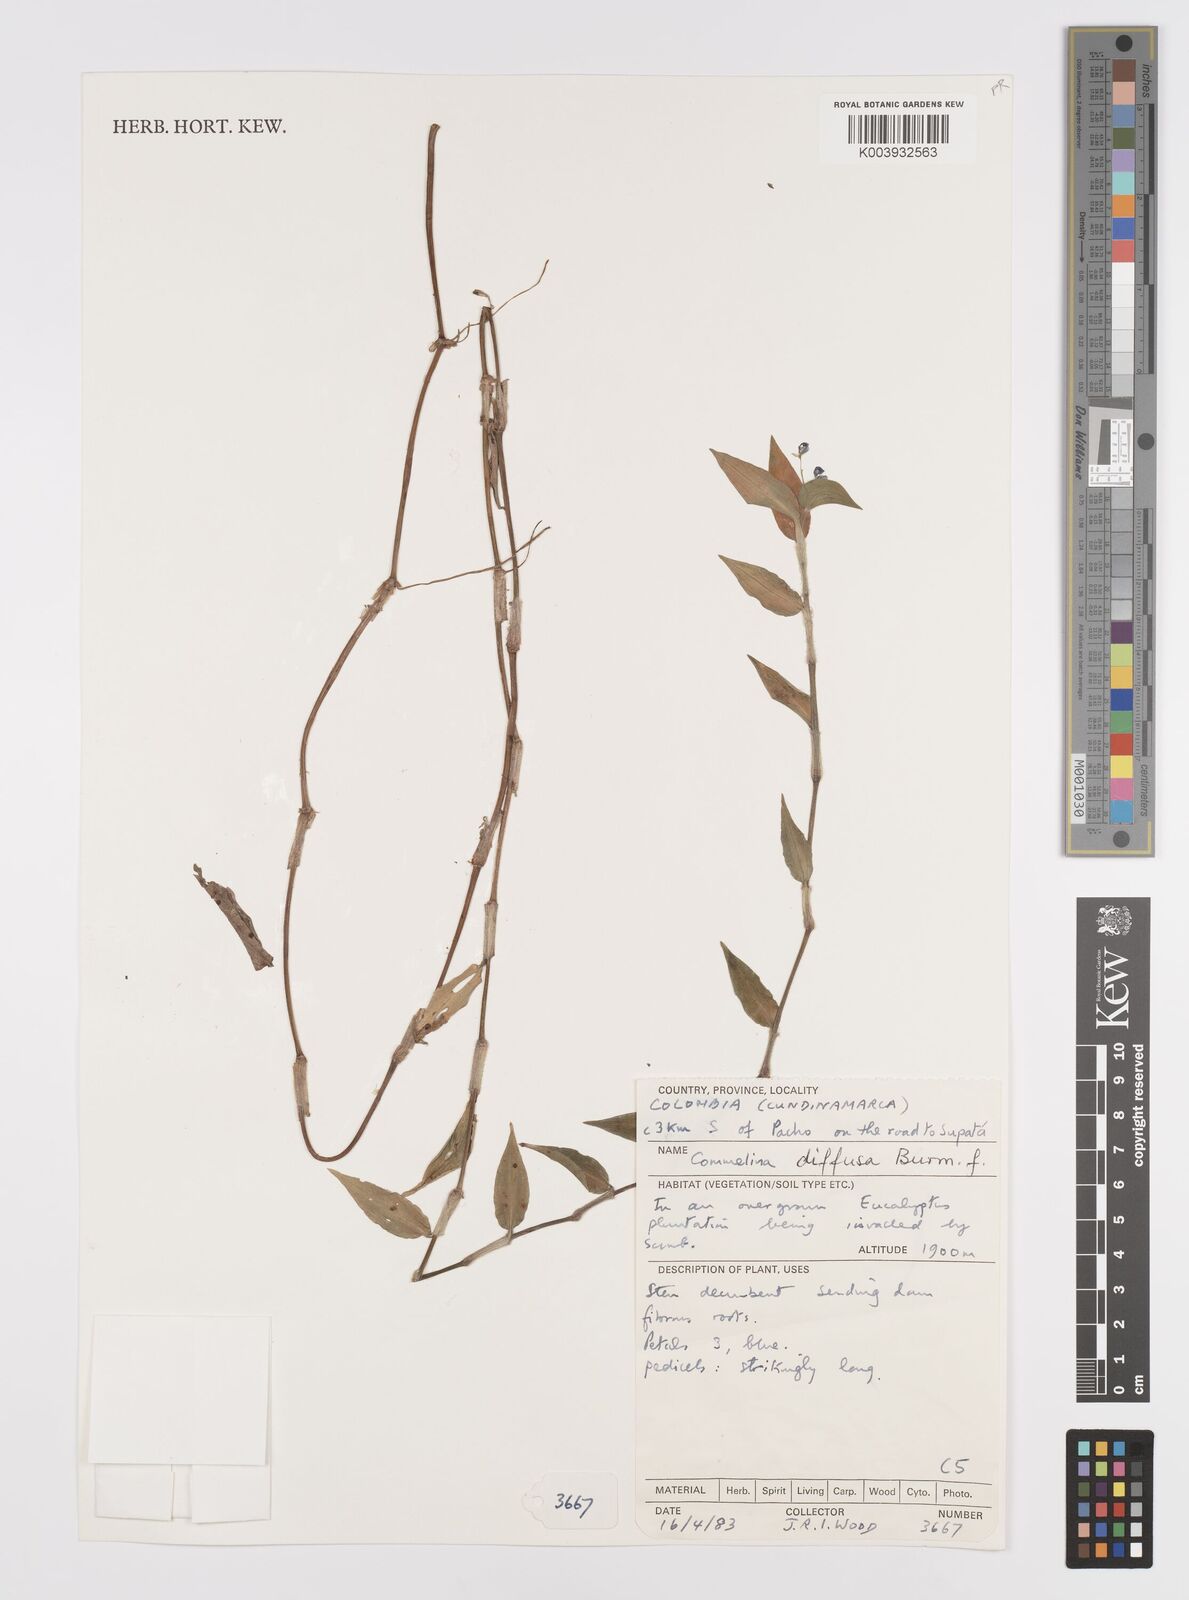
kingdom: Plantae
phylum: Tracheophyta
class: Liliopsida
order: Commelinales
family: Commelinaceae
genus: Commelina
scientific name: Commelina diffusa
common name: Climbing dayflower
